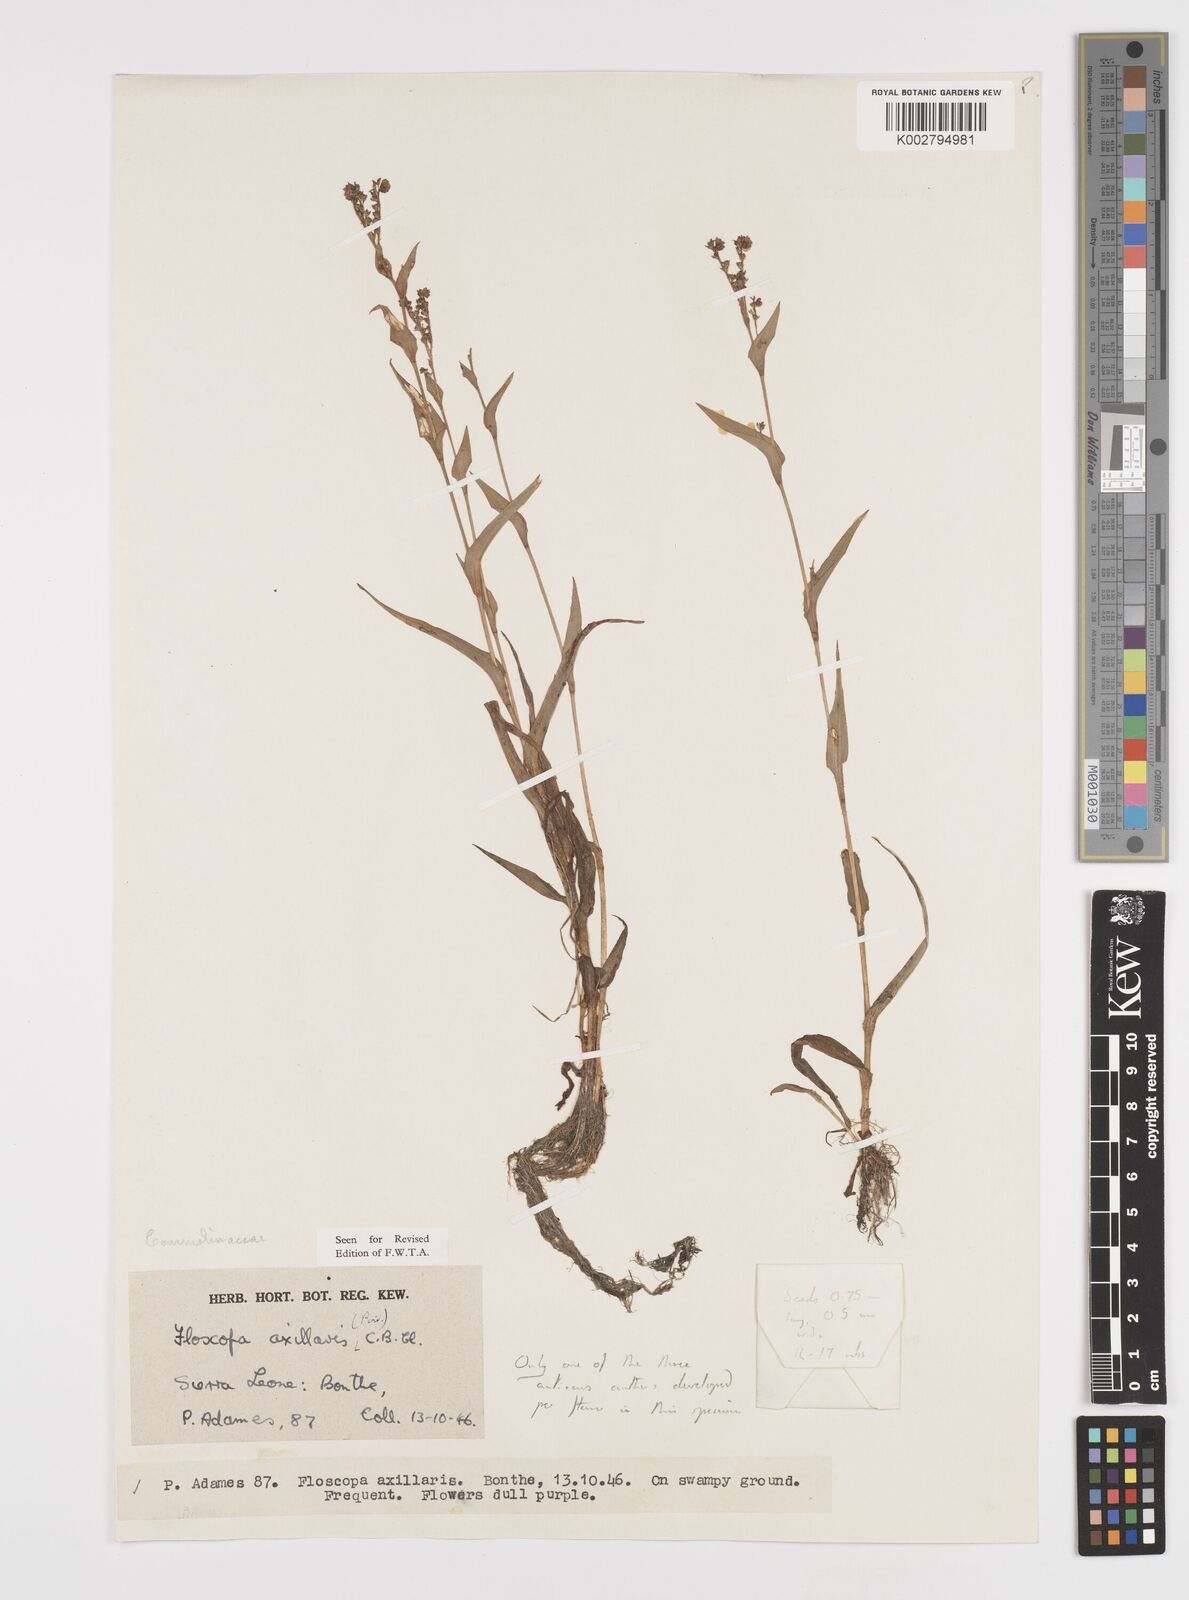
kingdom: Plantae
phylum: Tracheophyta
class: Liliopsida
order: Commelinales
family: Commelinaceae
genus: Floscopa
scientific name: Floscopa axillaris
